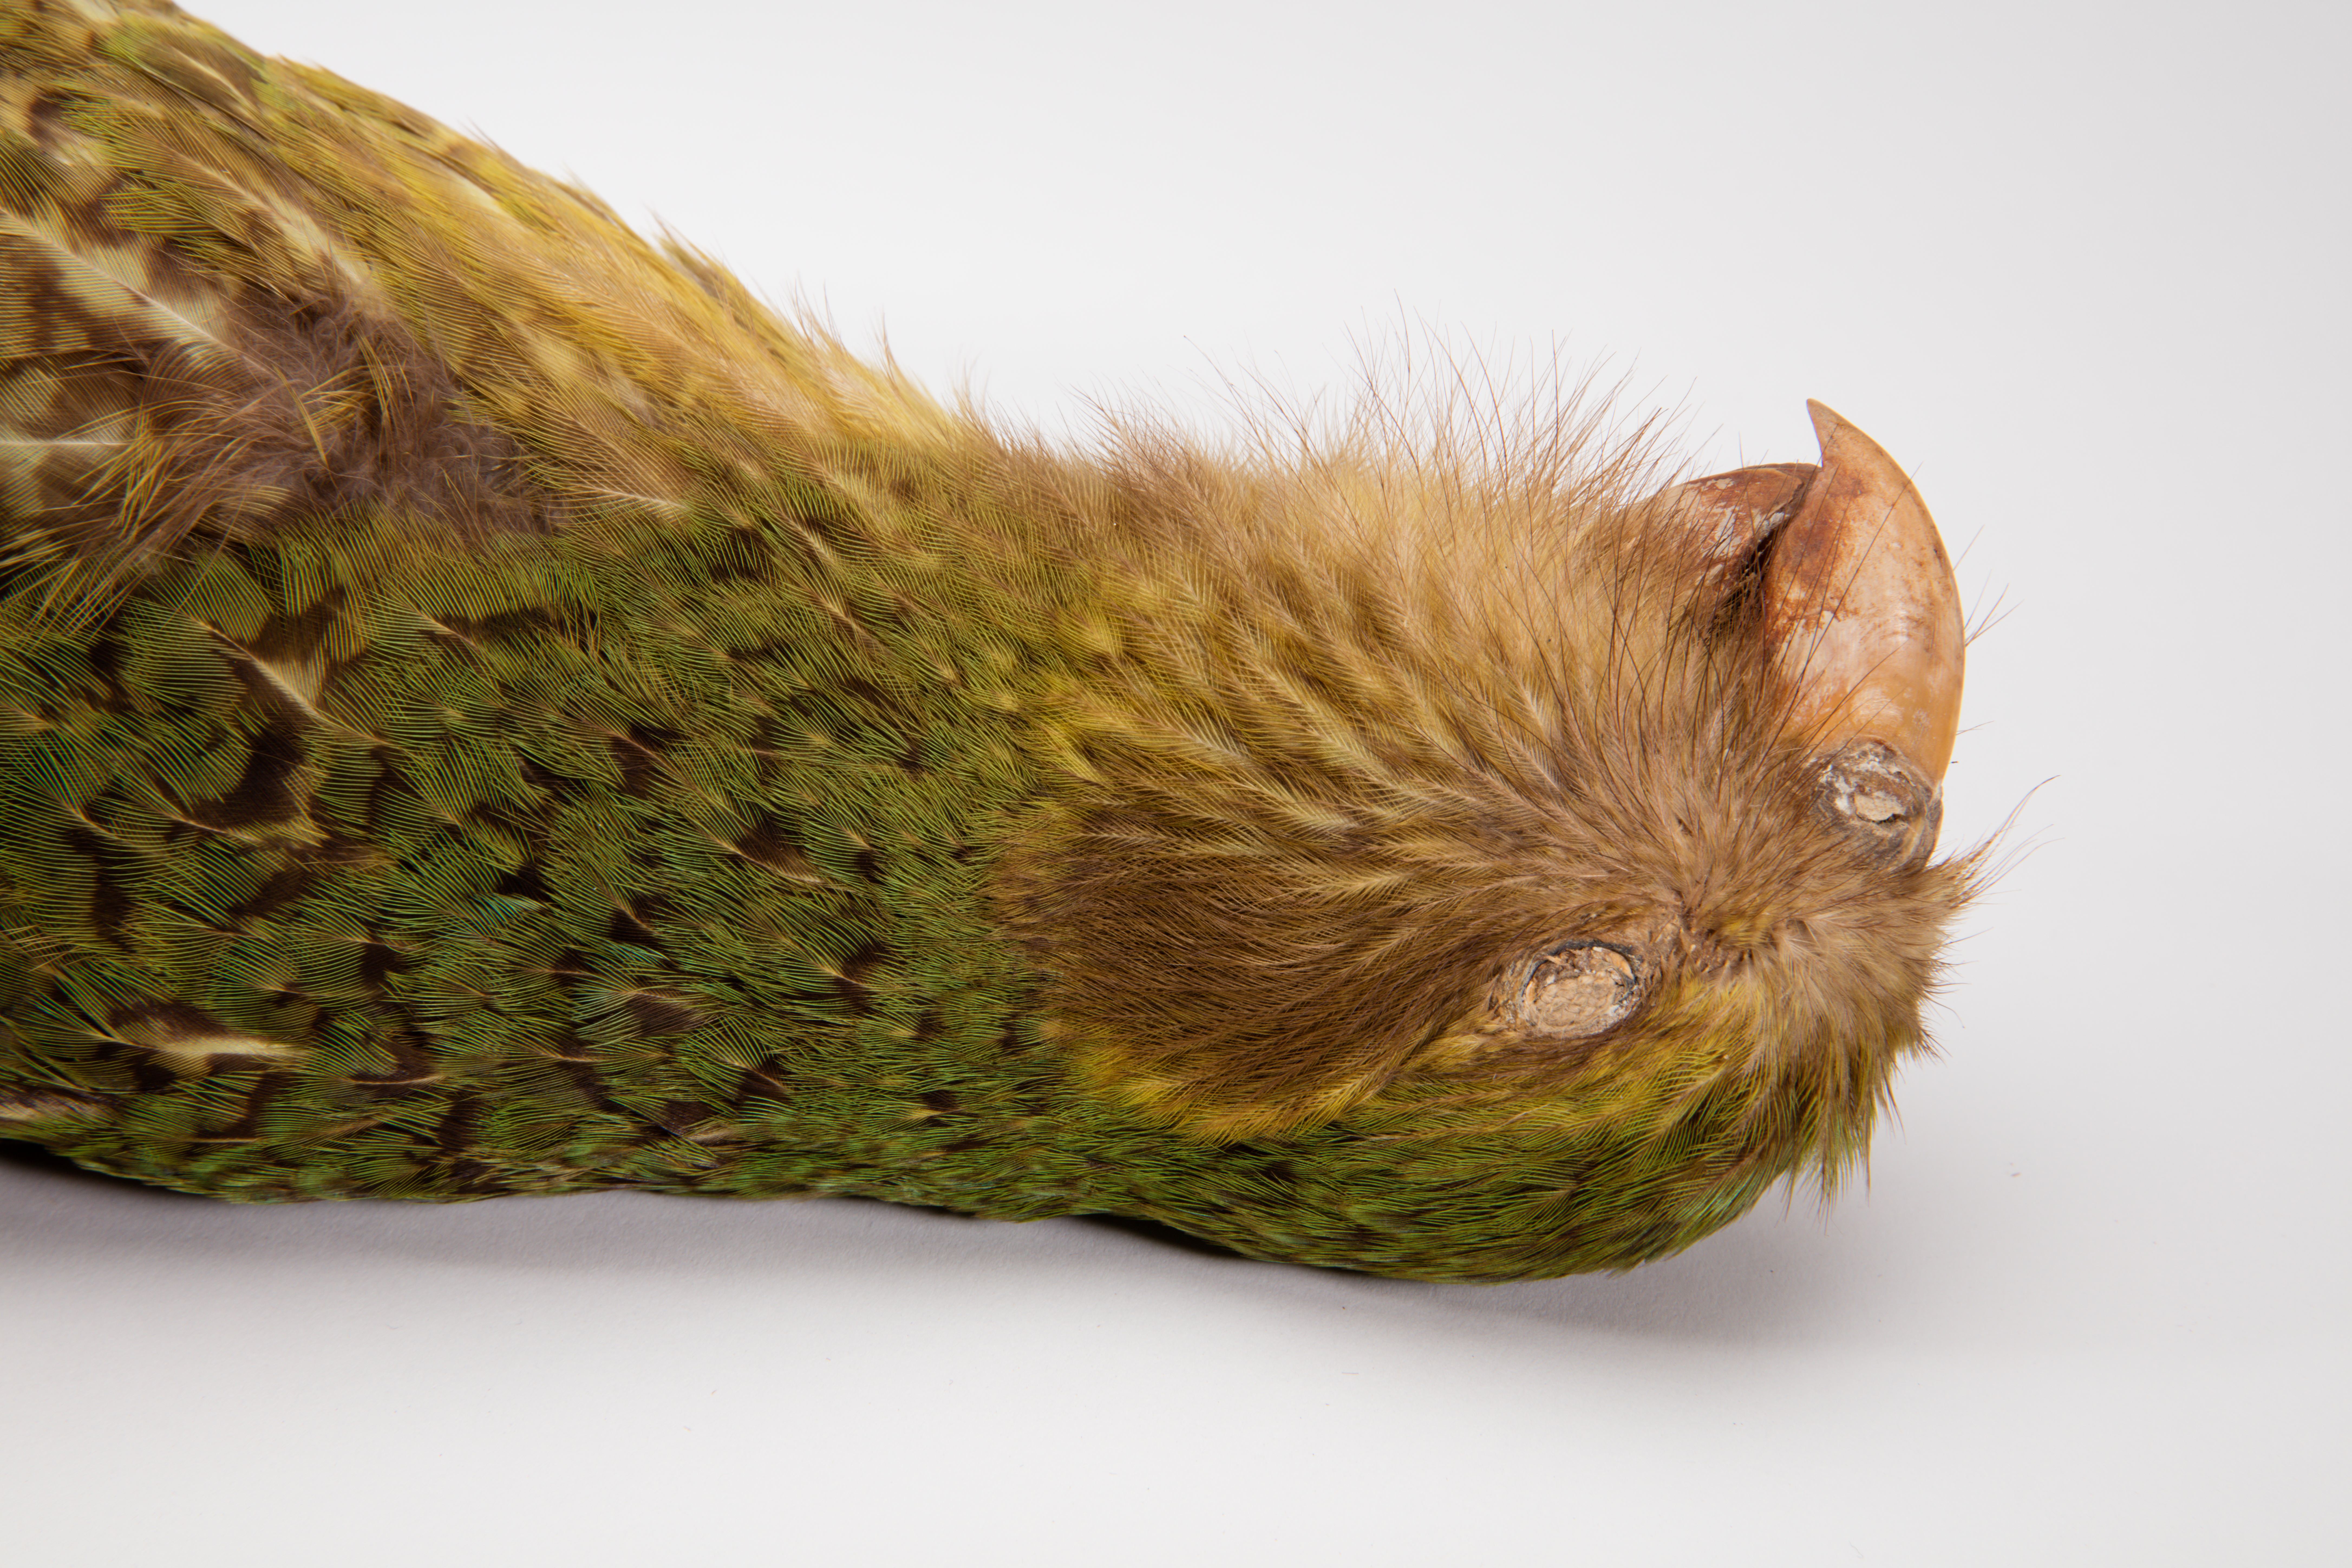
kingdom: Animalia
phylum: Chordata
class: Aves
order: Psittaciformes
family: Psittacidae
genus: Strigops
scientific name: Strigops habroptila
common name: Kakapo
